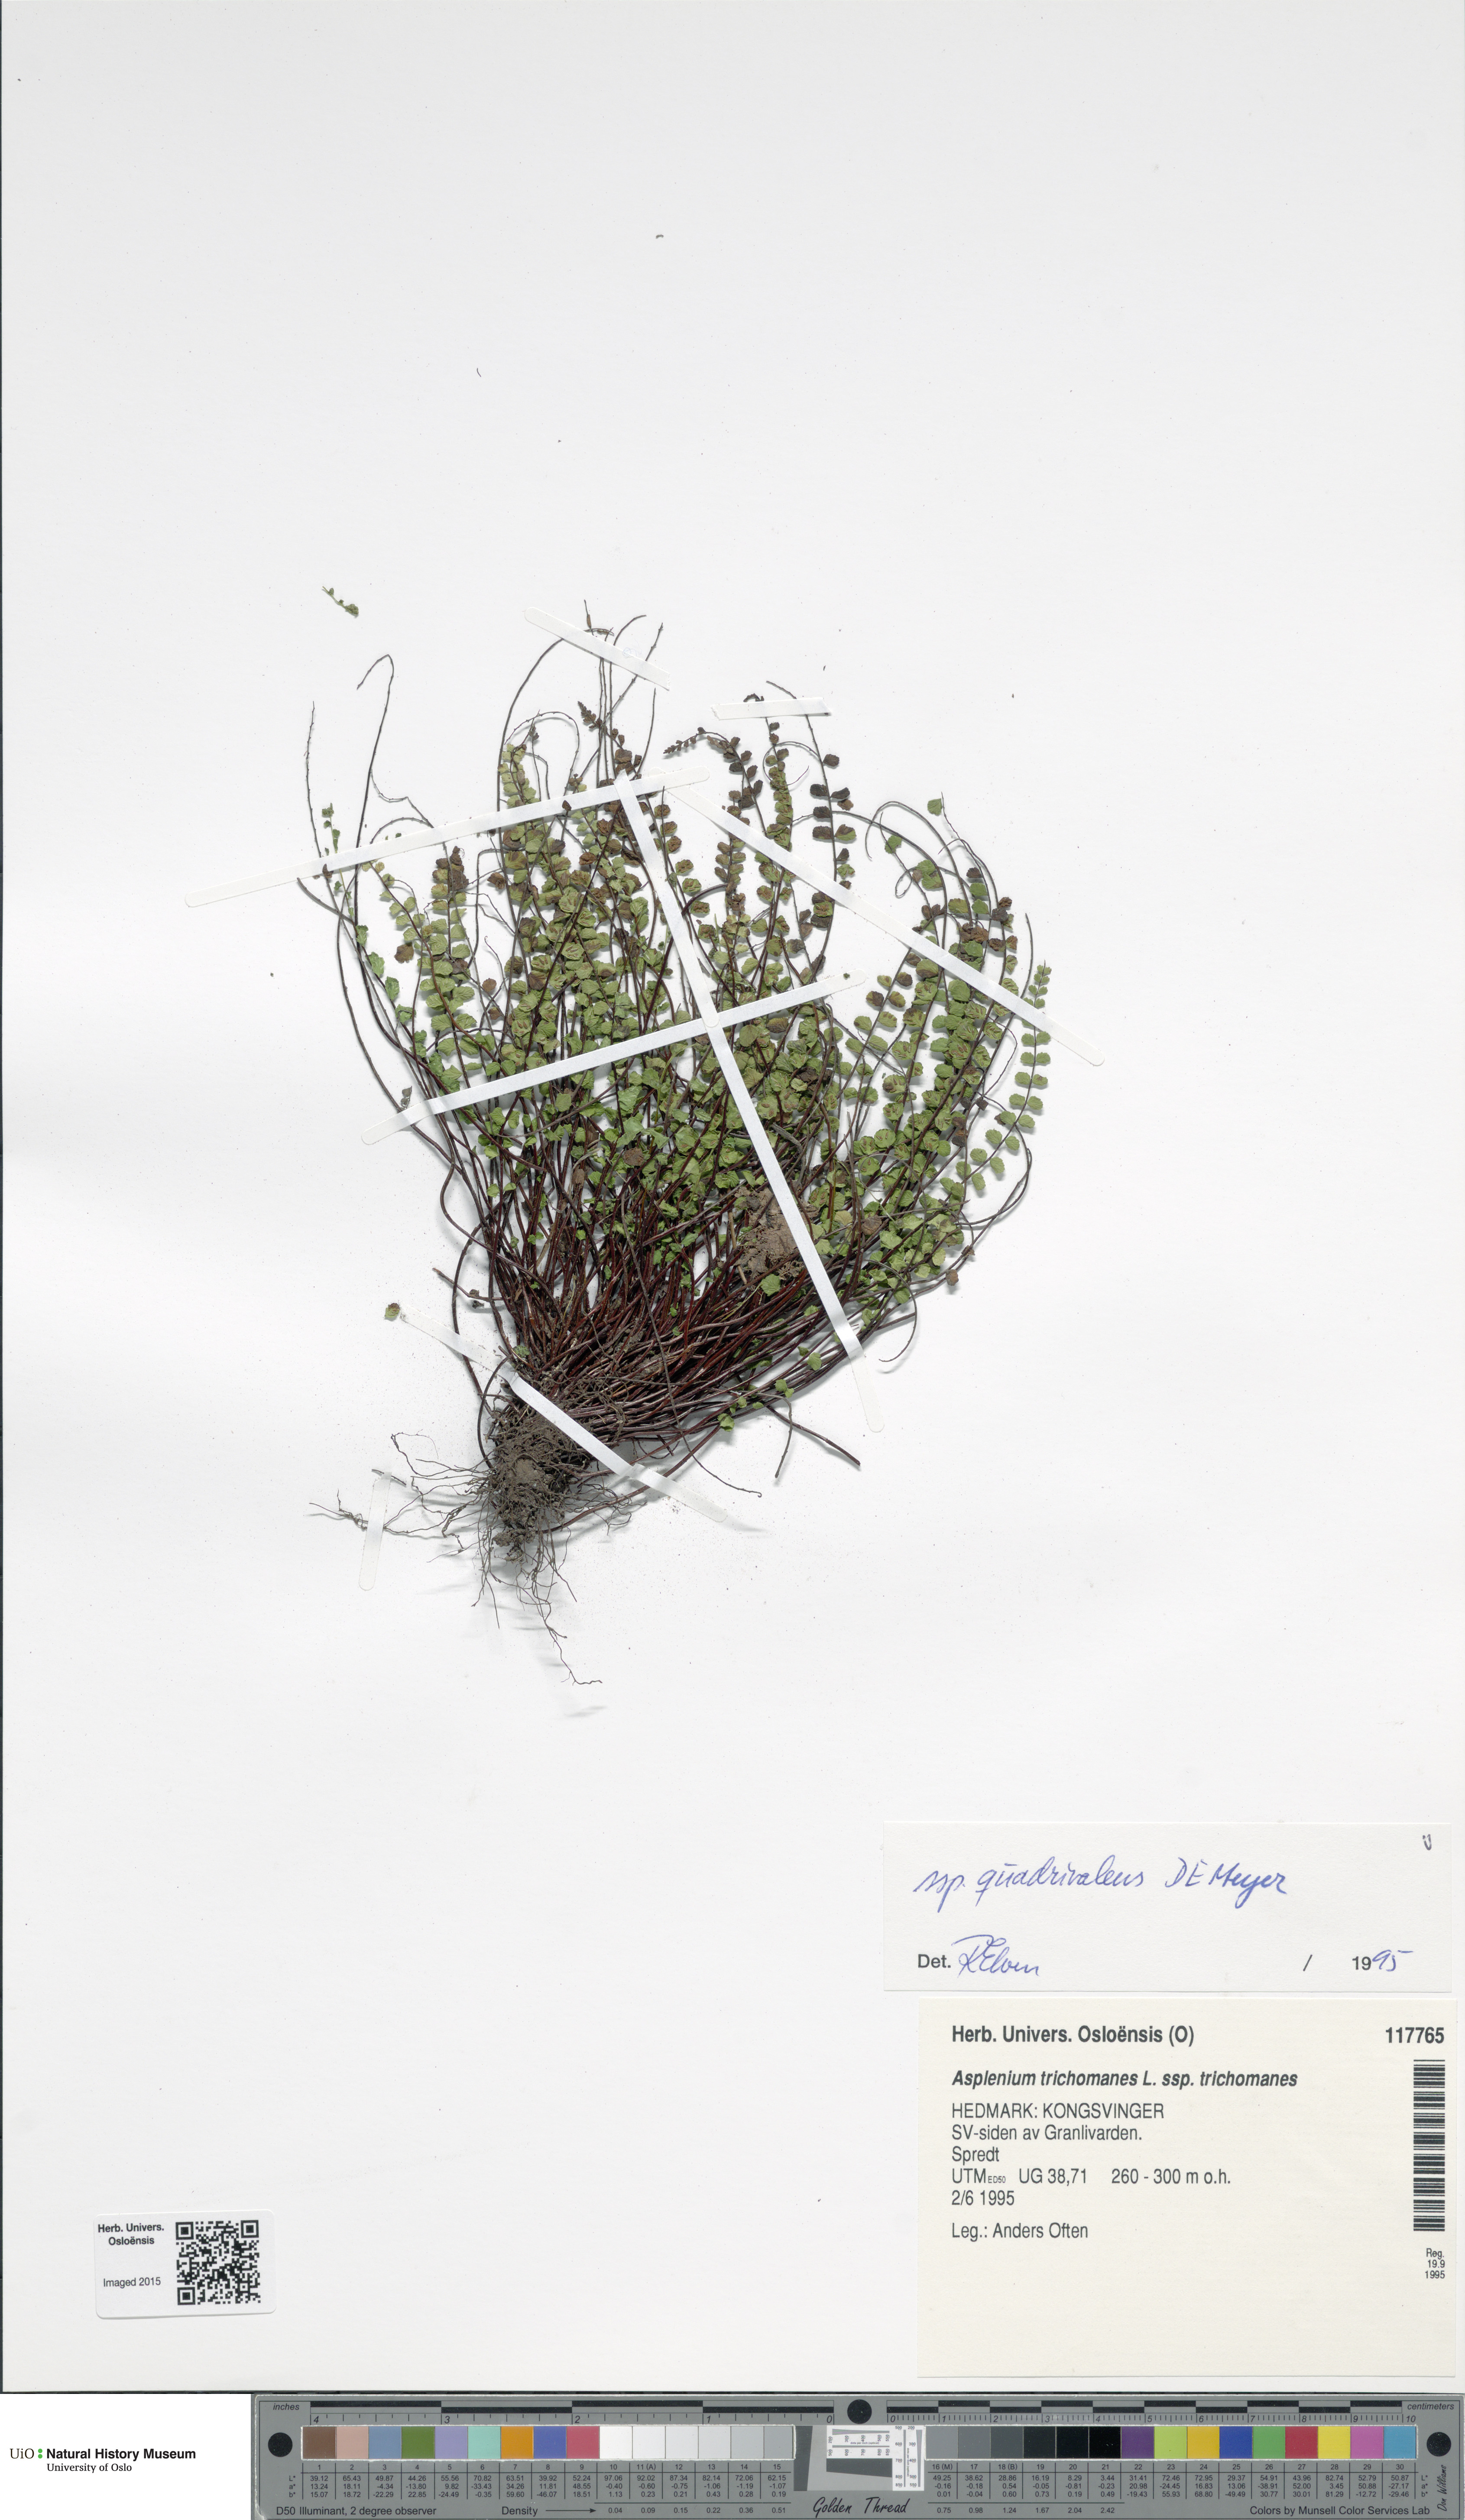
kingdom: Plantae
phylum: Tracheophyta
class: Polypodiopsida
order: Polypodiales
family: Aspleniaceae
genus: Asplenium
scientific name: Asplenium quadrivalens
